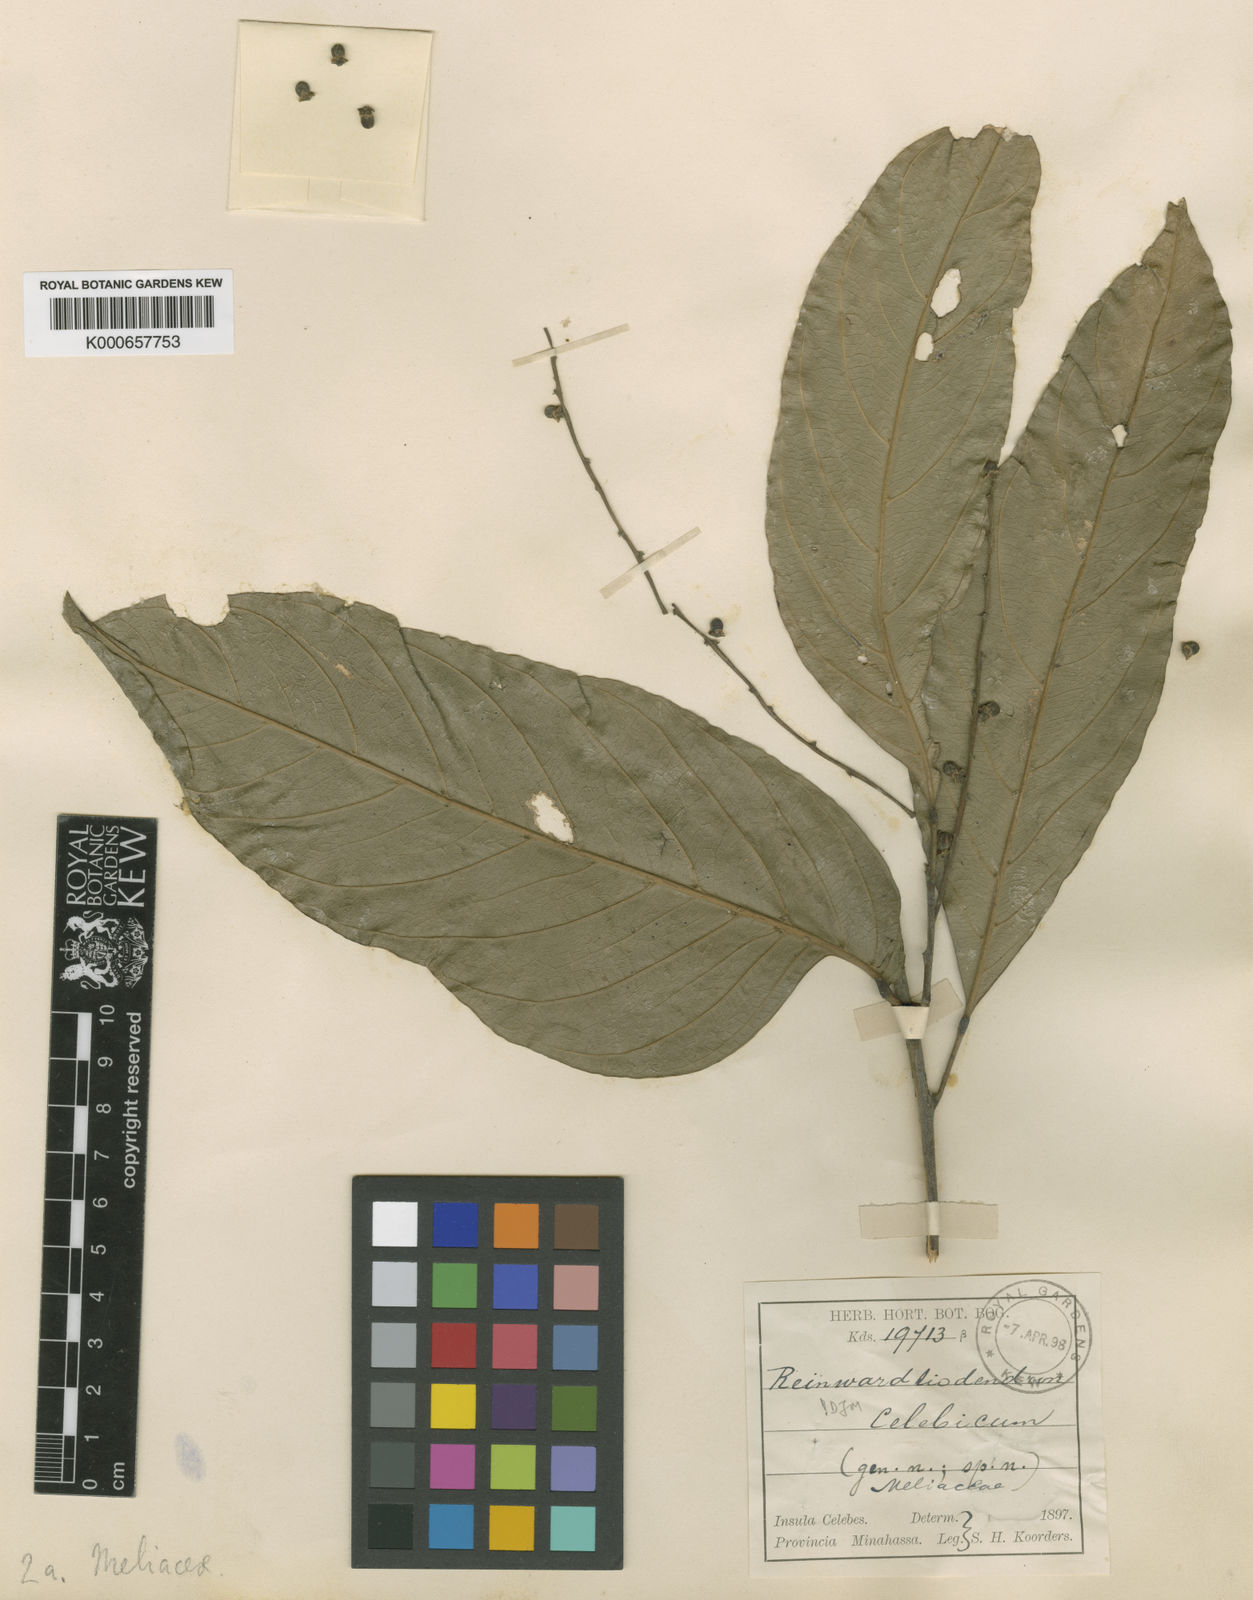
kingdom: Plantae
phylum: Tracheophyta
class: Magnoliopsida
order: Sapindales
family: Meliaceae
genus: Reinwardtiodendron
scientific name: Reinwardtiodendron celebicum
